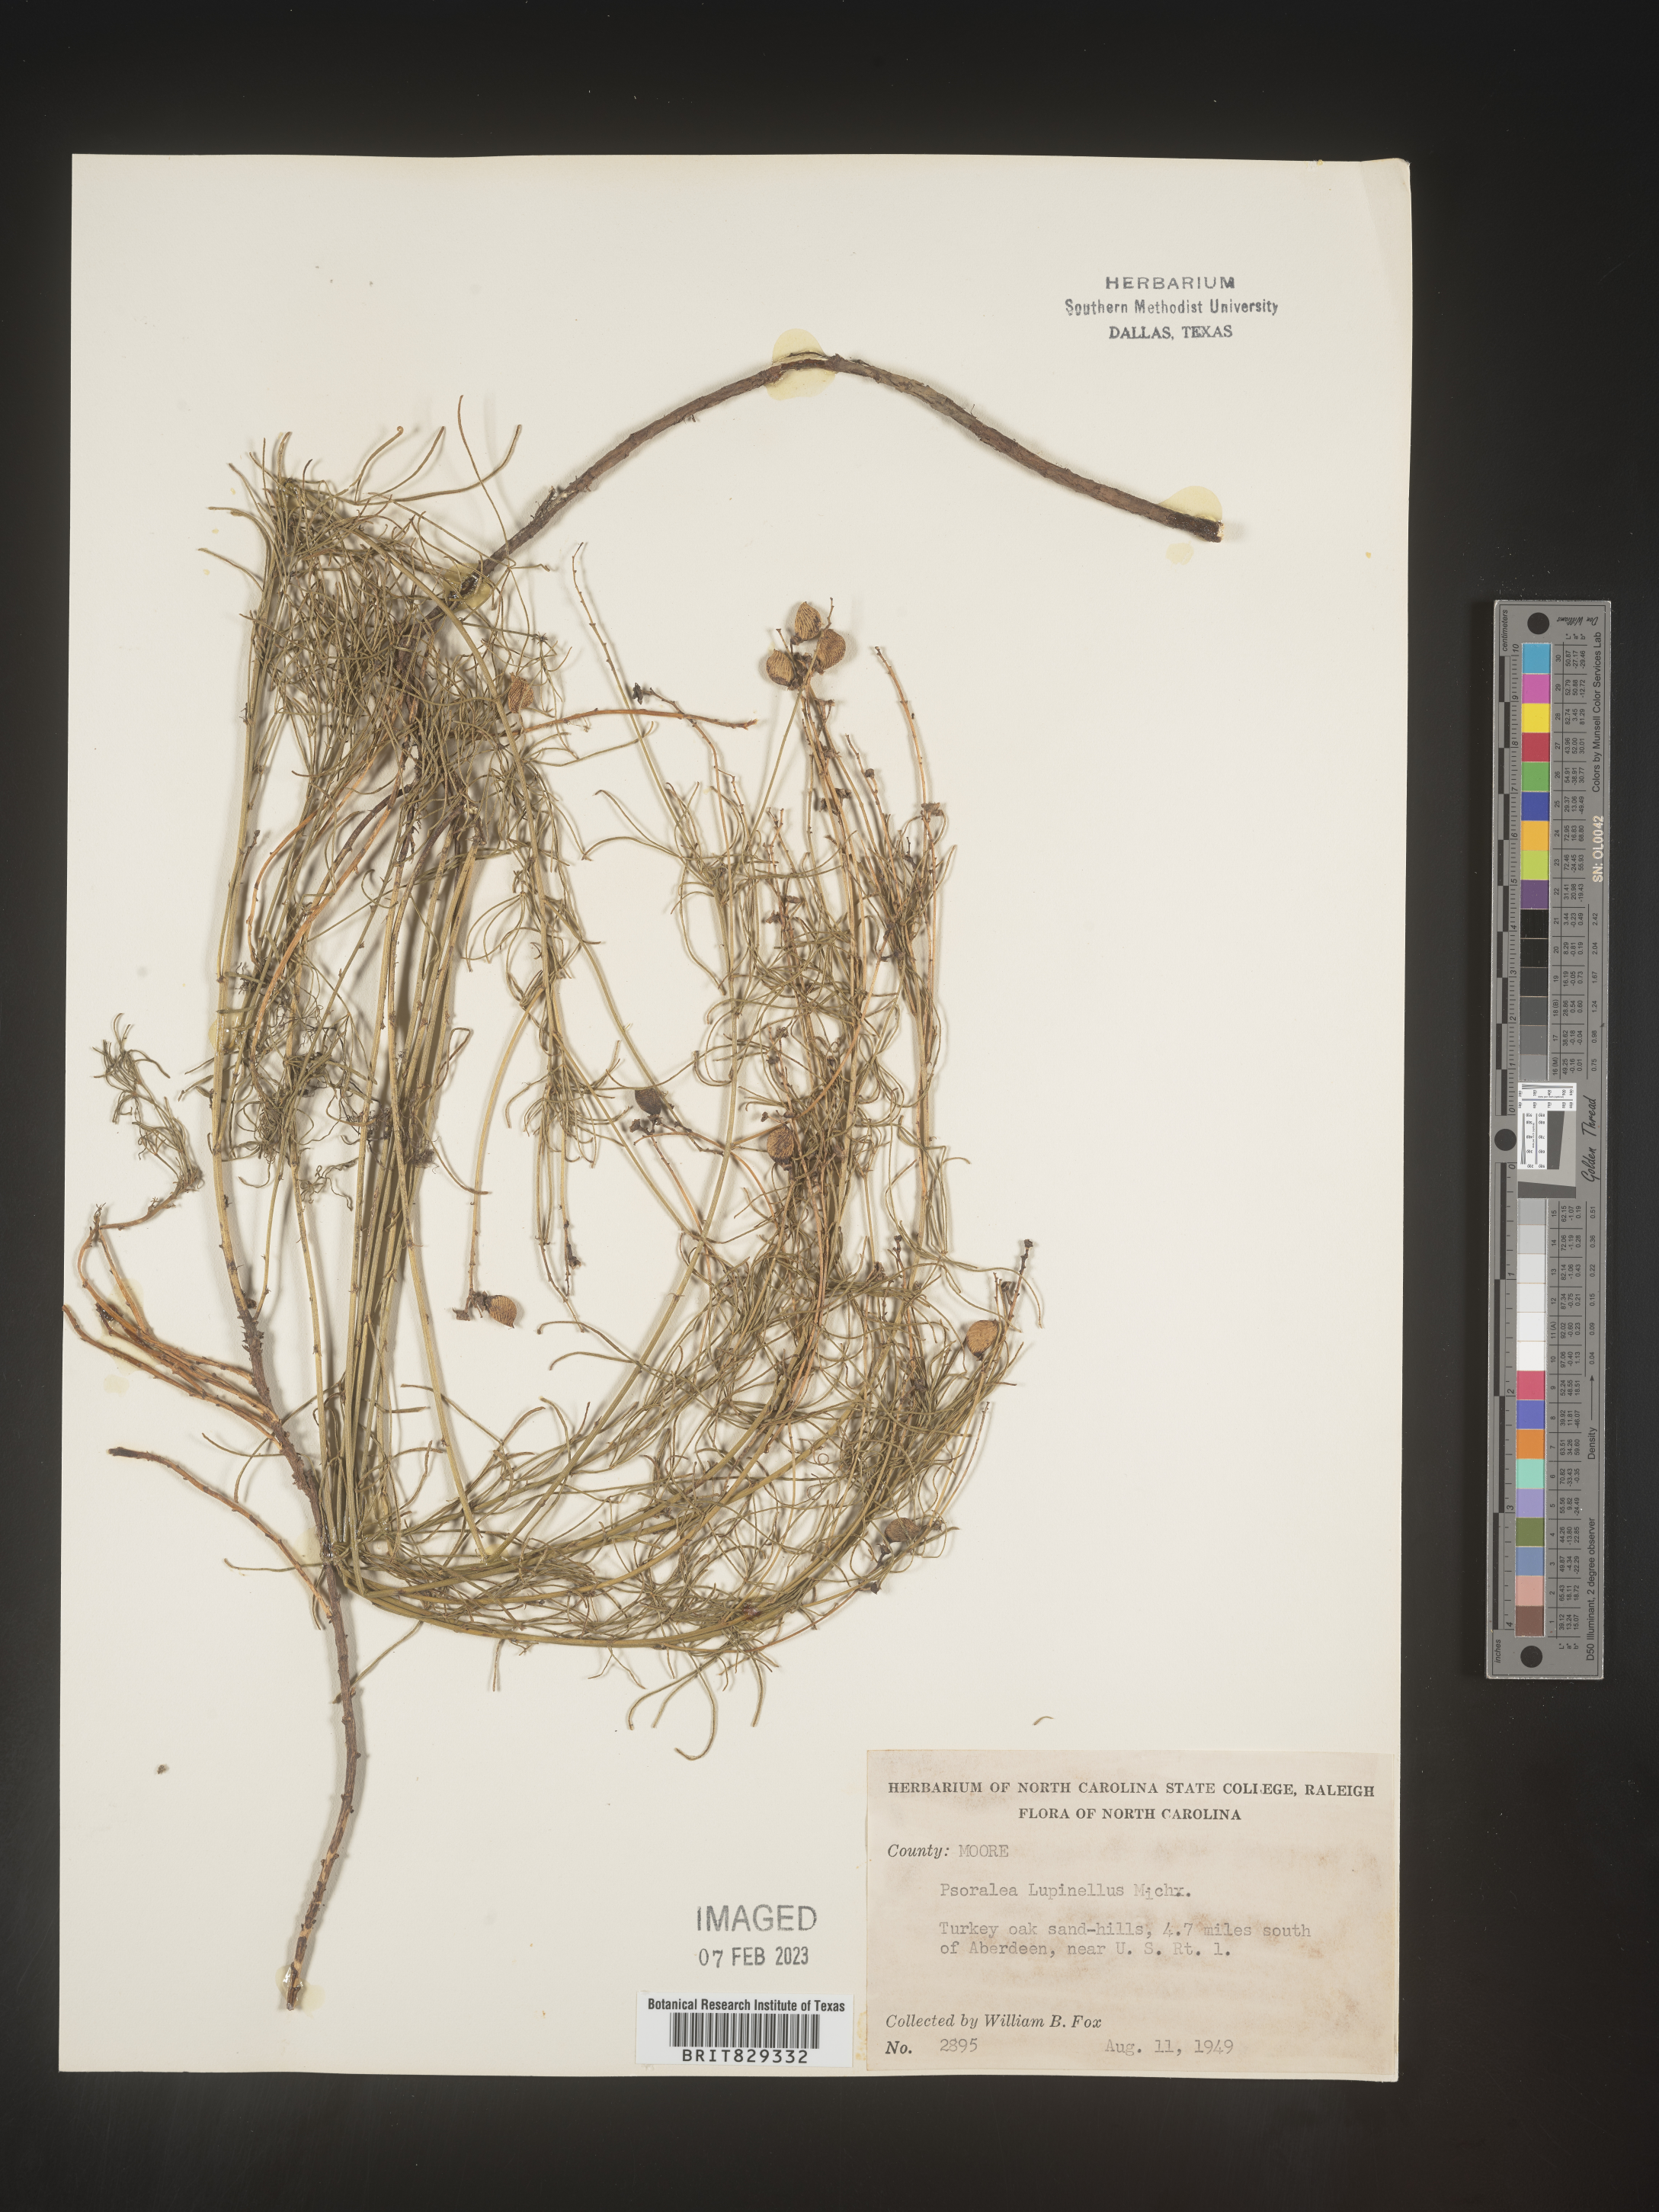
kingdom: Plantae
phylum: Tracheophyta
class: Magnoliopsida
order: Fabales
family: Fabaceae
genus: Psoralea
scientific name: Psoralea
